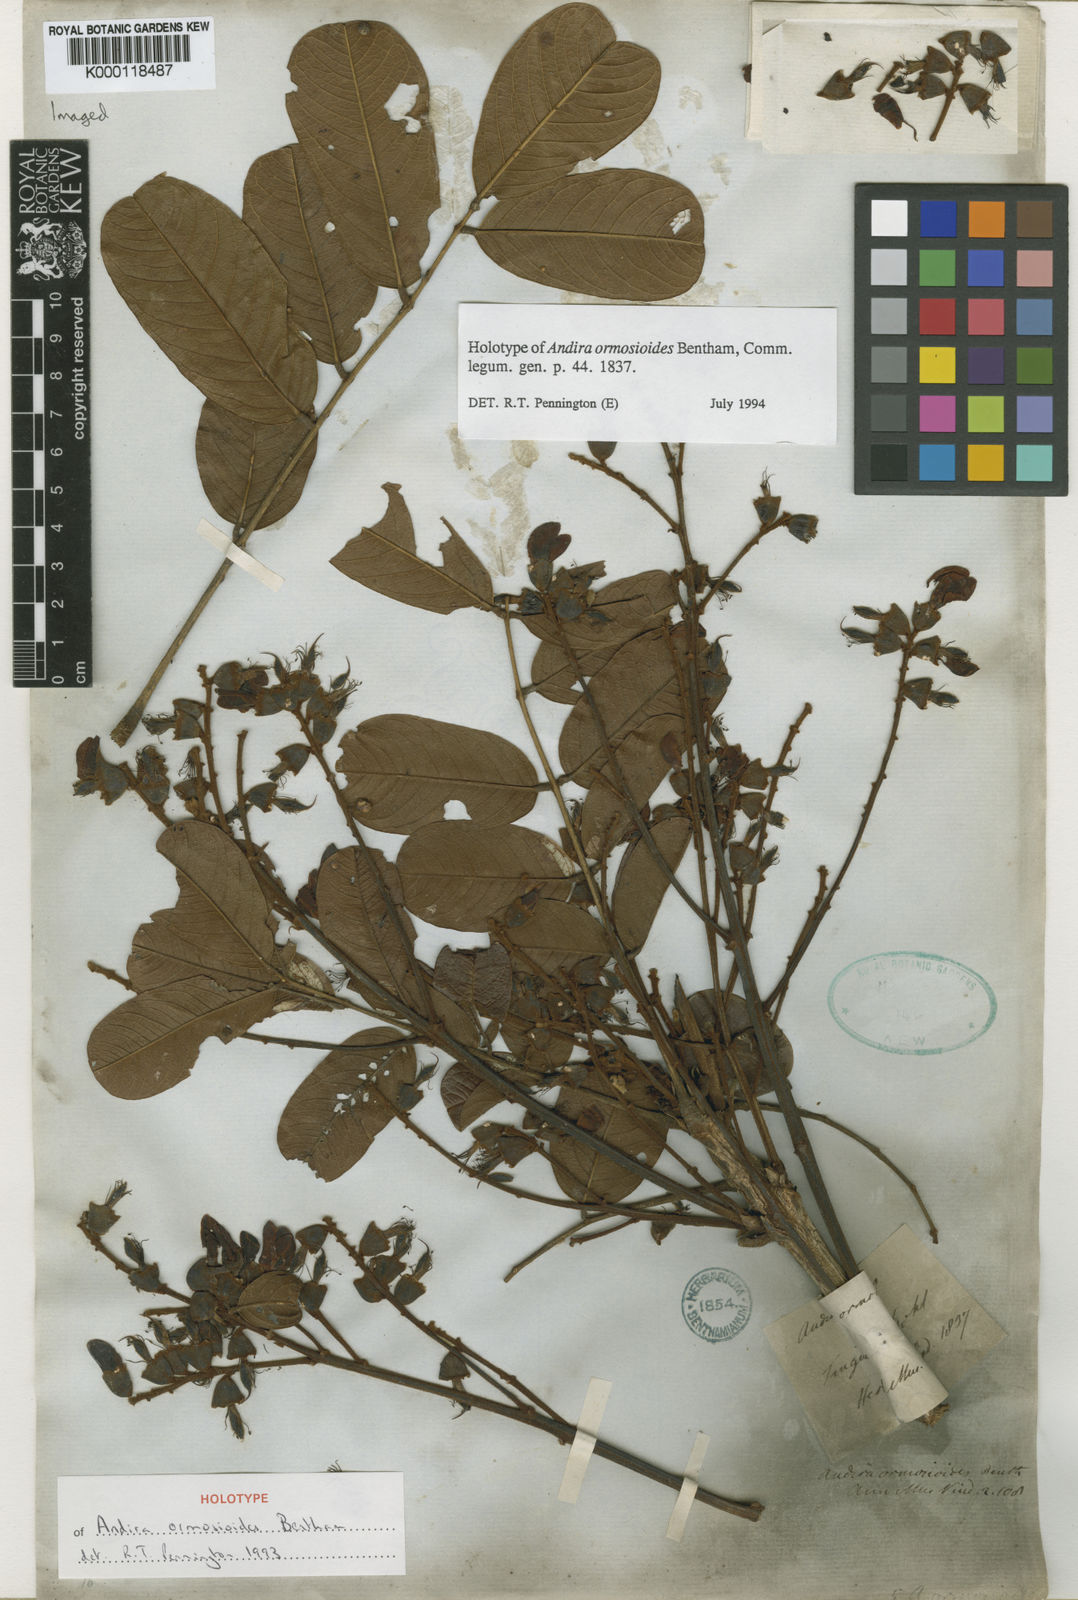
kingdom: Plantae
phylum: Tracheophyta
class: Magnoliopsida
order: Fabales
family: Fabaceae
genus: Andira
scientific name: Andira ormosioides
